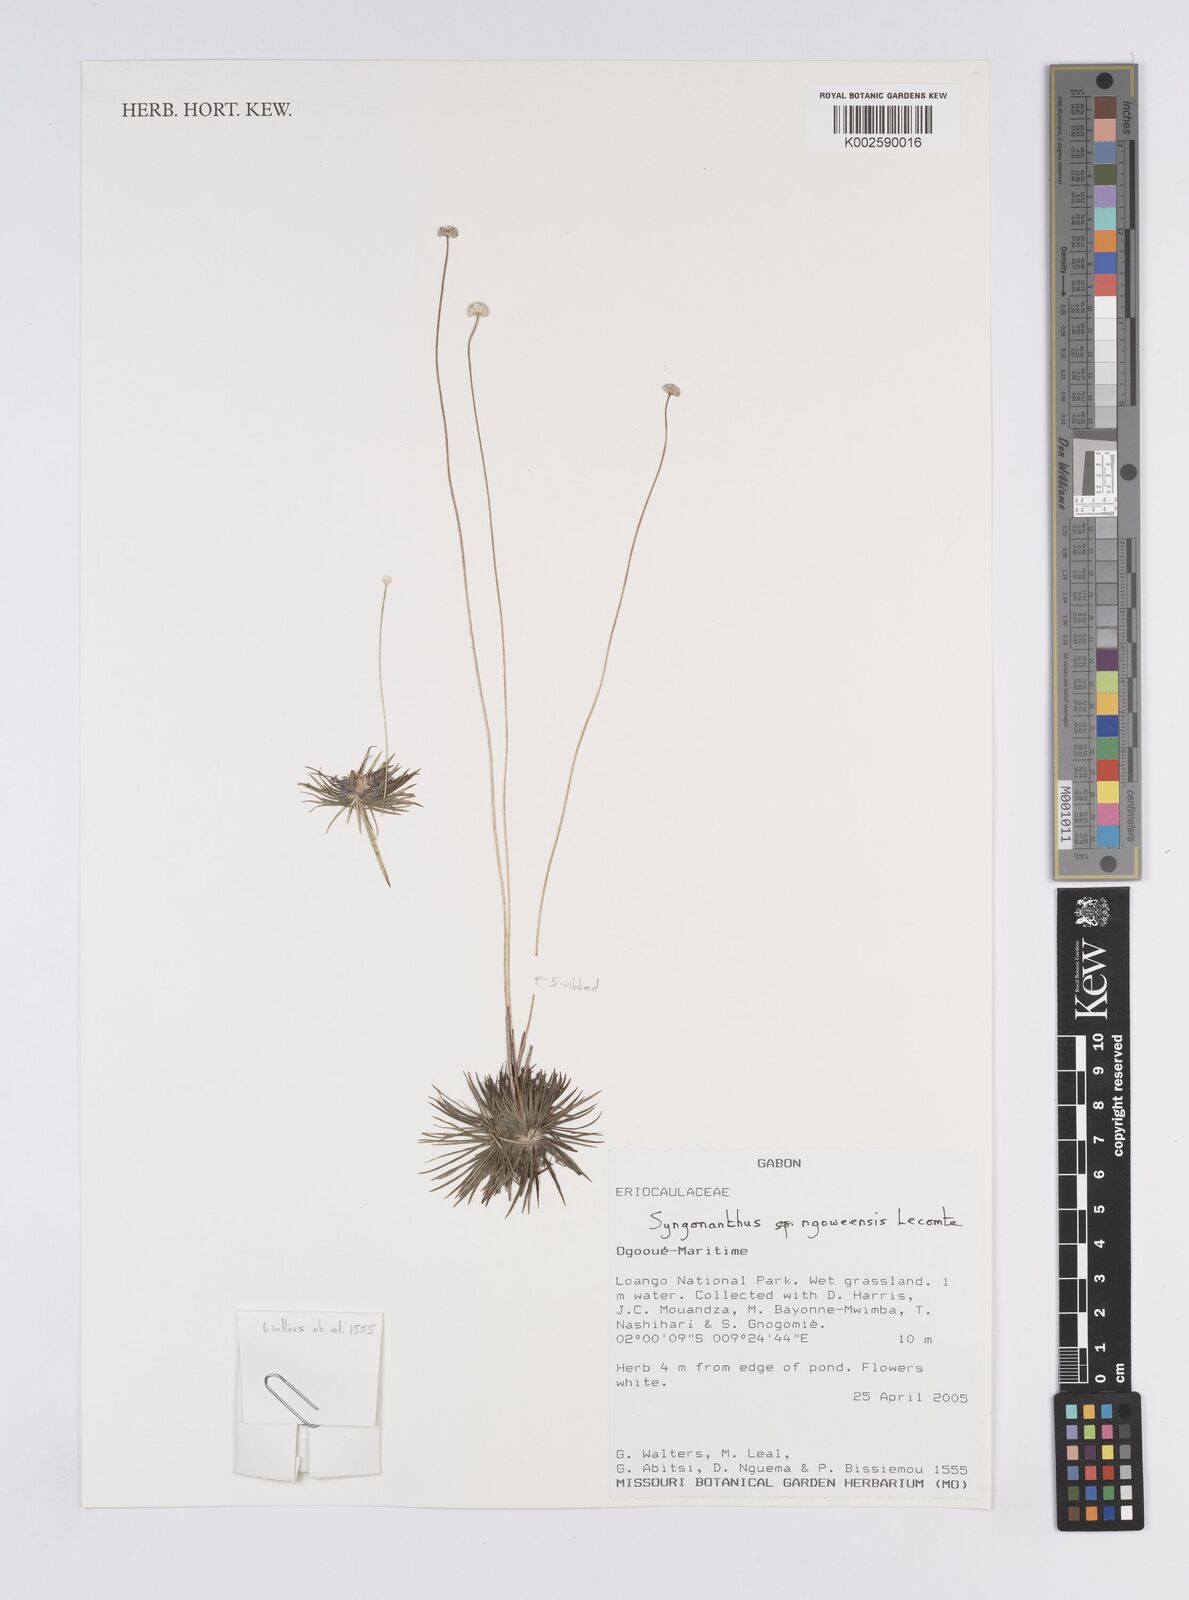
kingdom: Plantae
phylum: Tracheophyta
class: Liliopsida
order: Poales
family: Eriocaulaceae
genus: Syngonanthus
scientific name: Syngonanthus ngoweensis
